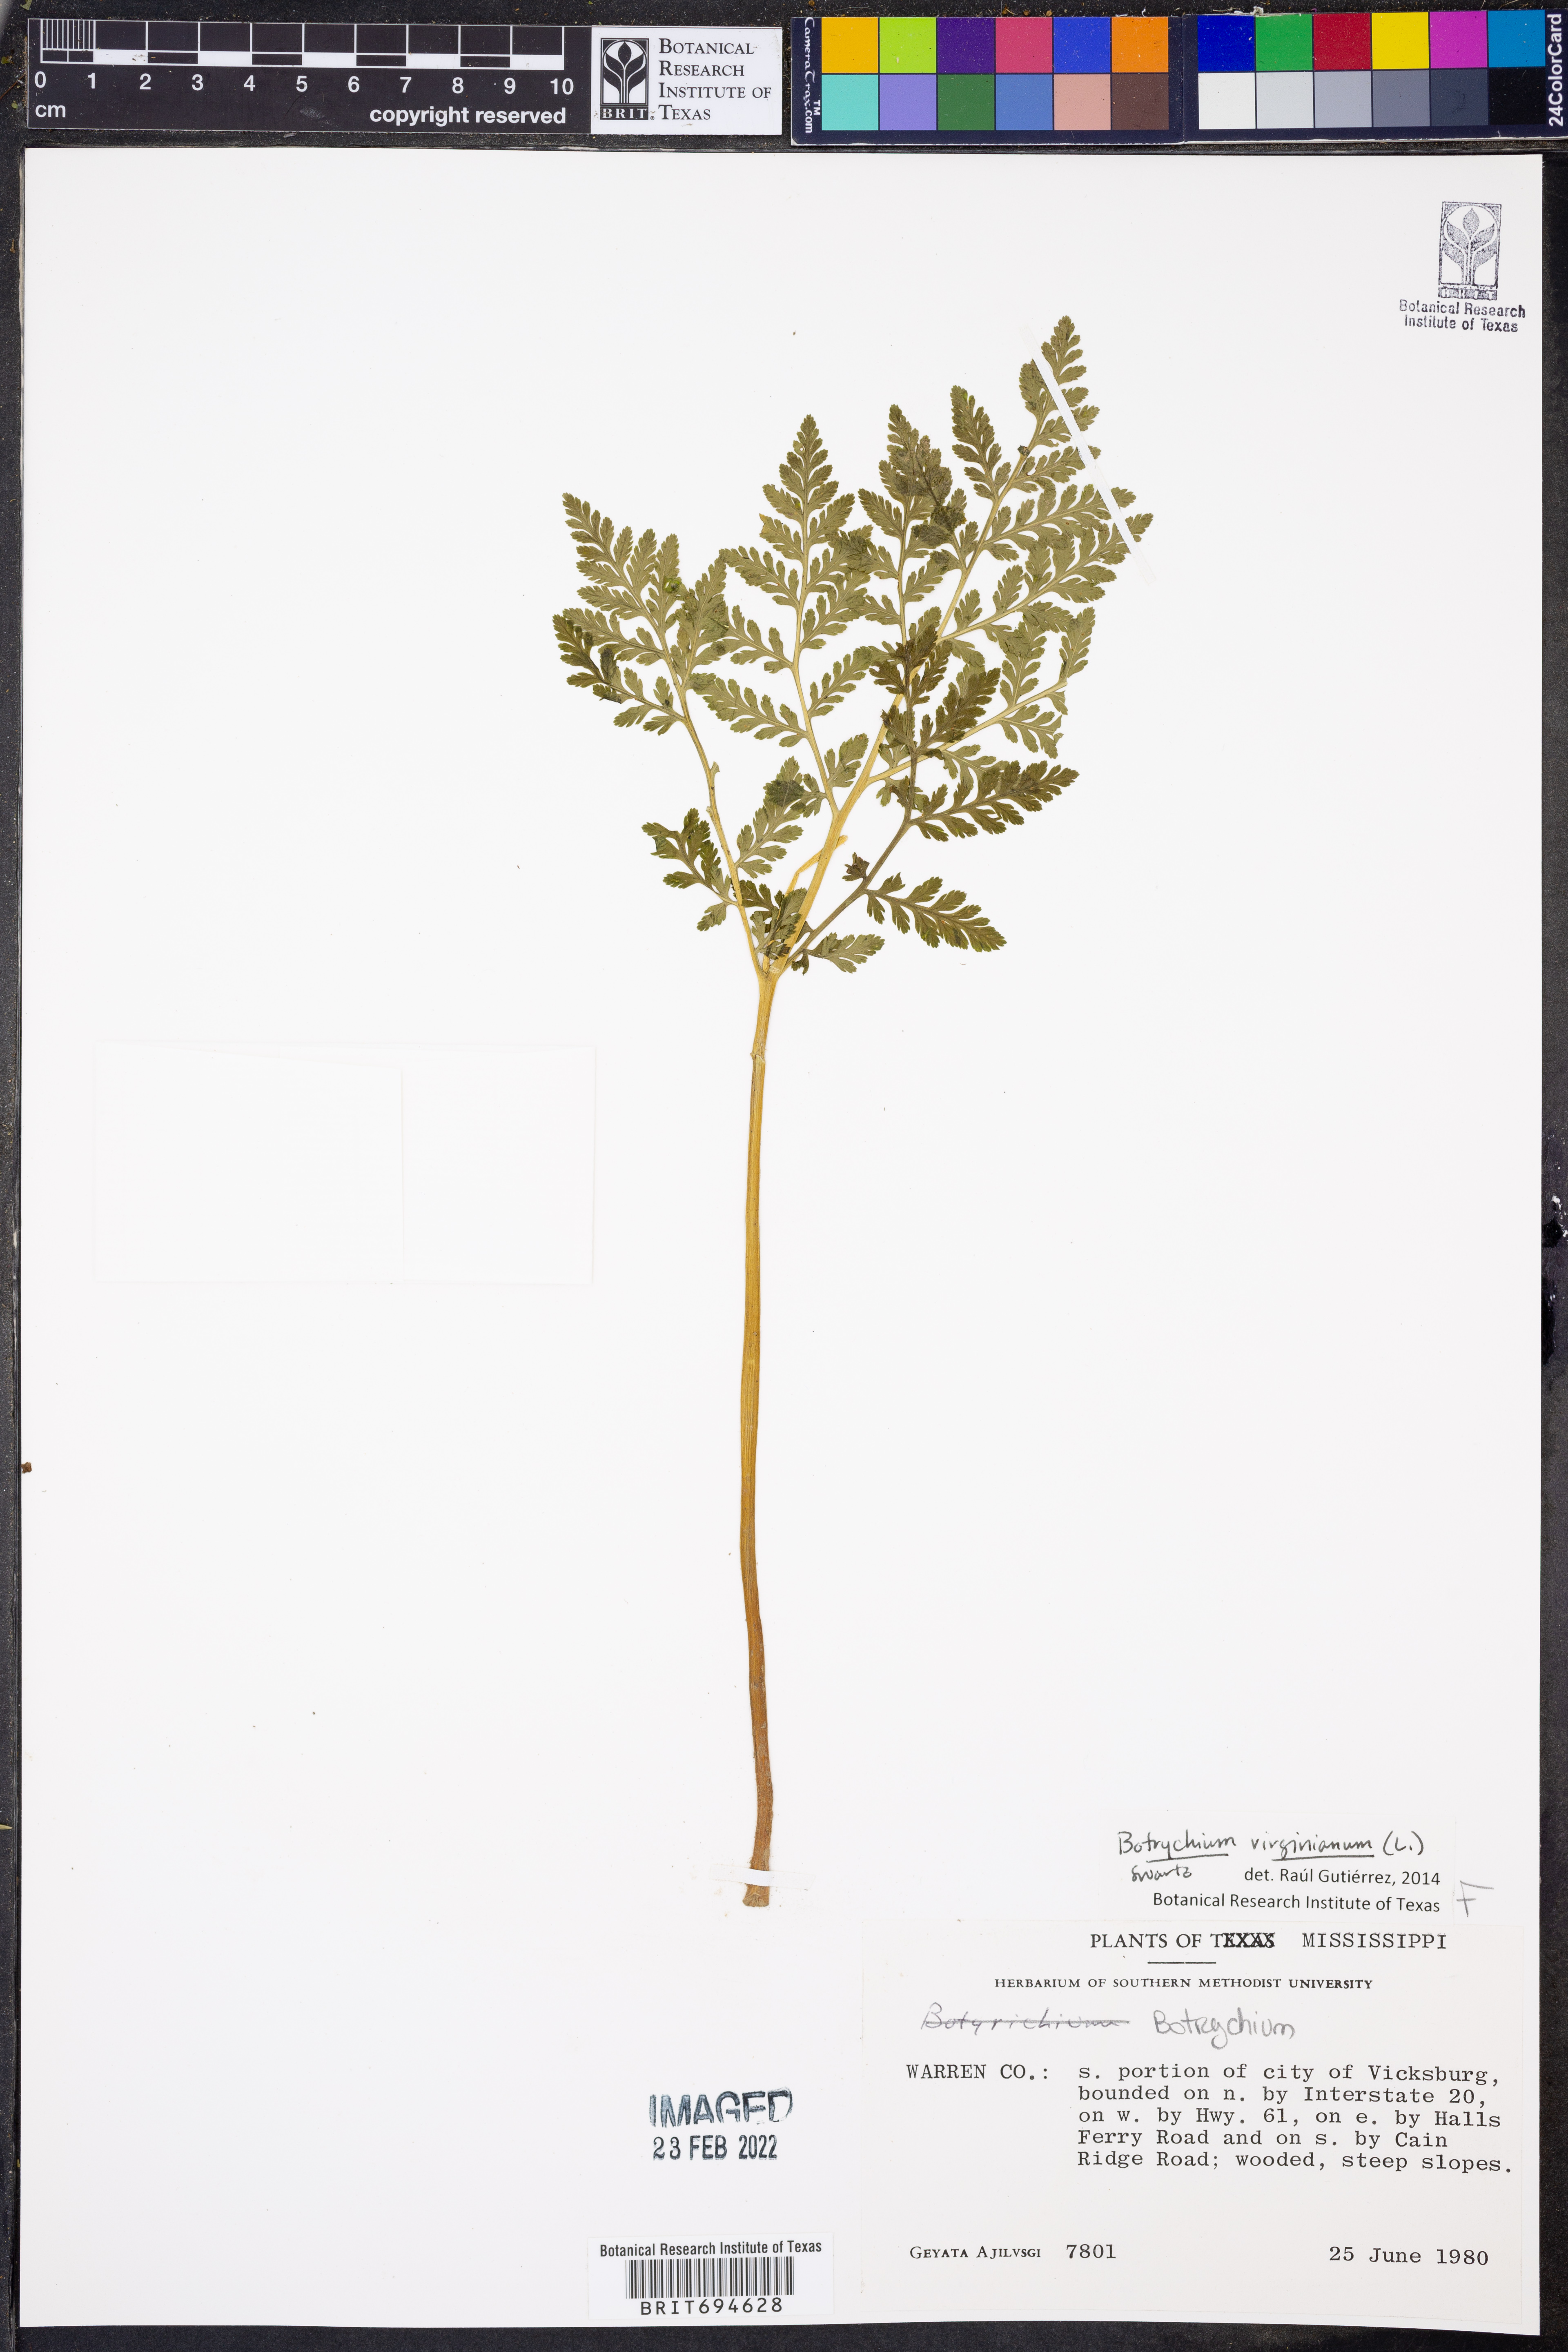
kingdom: Plantae
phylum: Tracheophyta
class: Polypodiopsida
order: Ophioglossales
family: Ophioglossaceae
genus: Botrypus
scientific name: Botrypus virginianus
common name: Common grapefern
